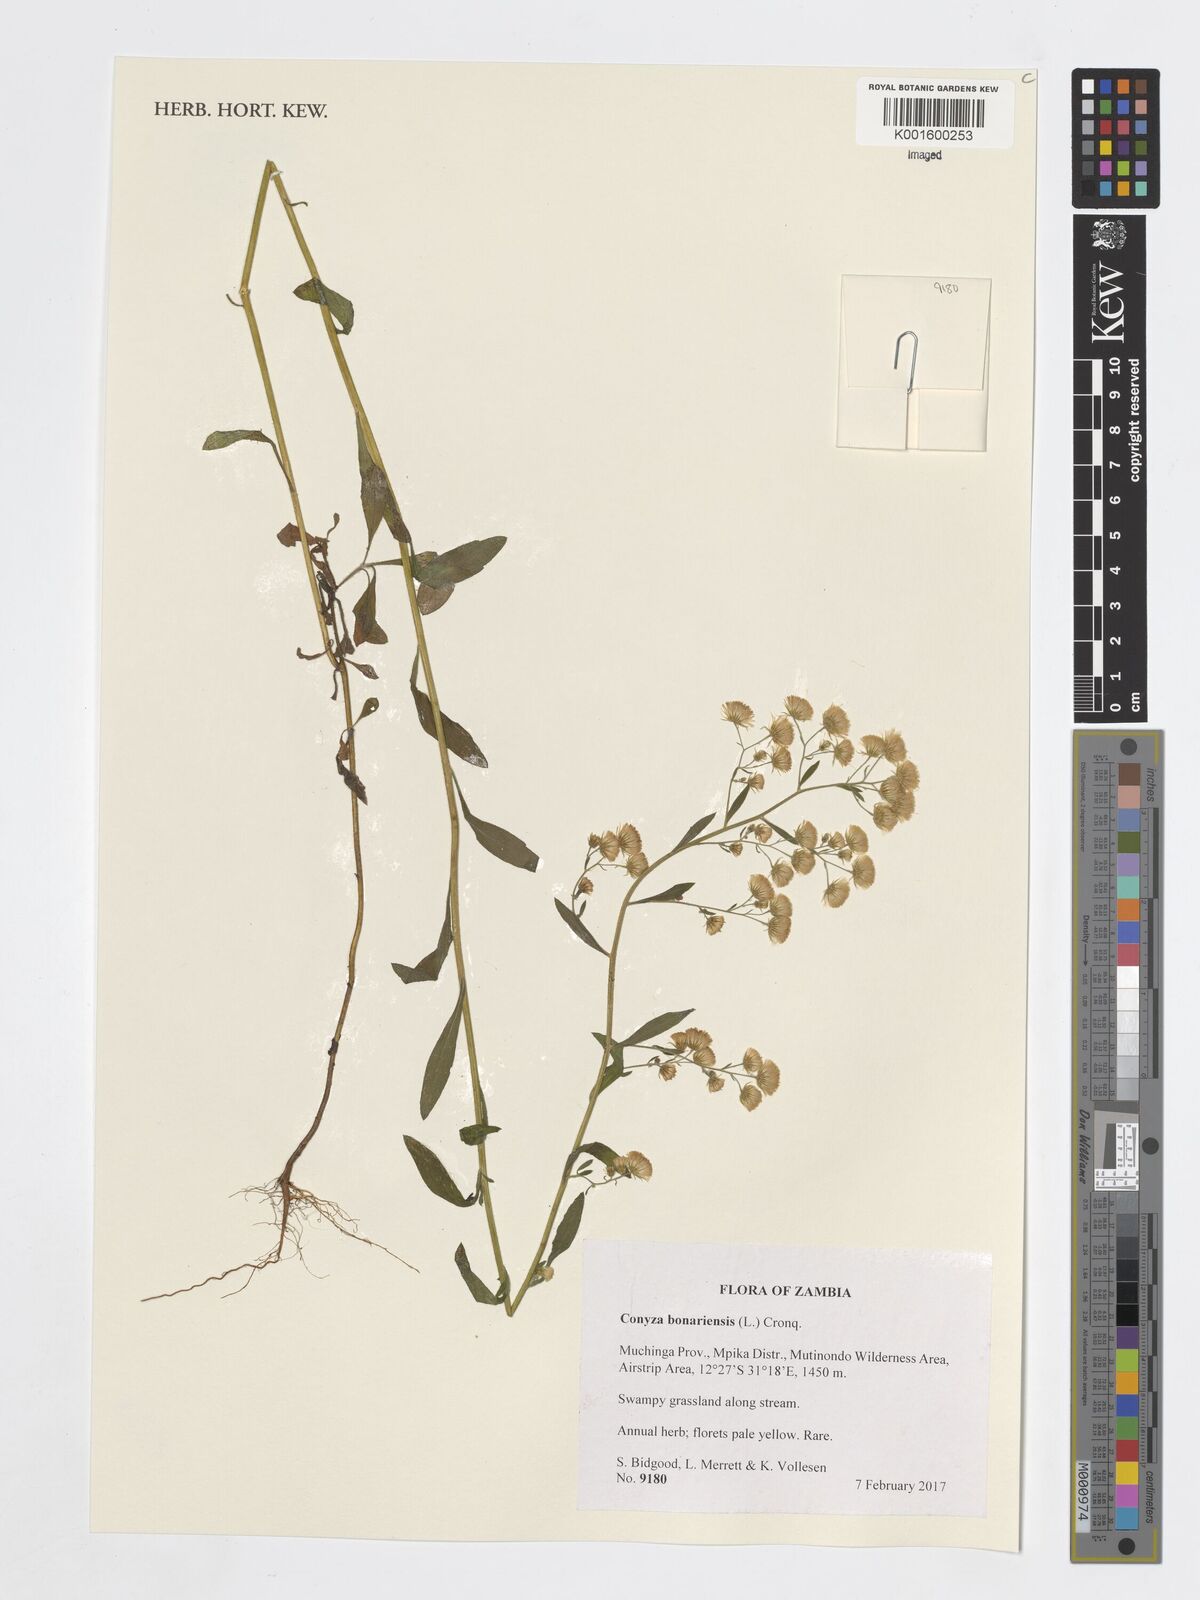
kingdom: Plantae
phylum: Tracheophyta
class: Magnoliopsida
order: Asterales
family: Asteraceae
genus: Erigeron
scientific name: Erigeron bonariensis
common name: Argentine fleabane
